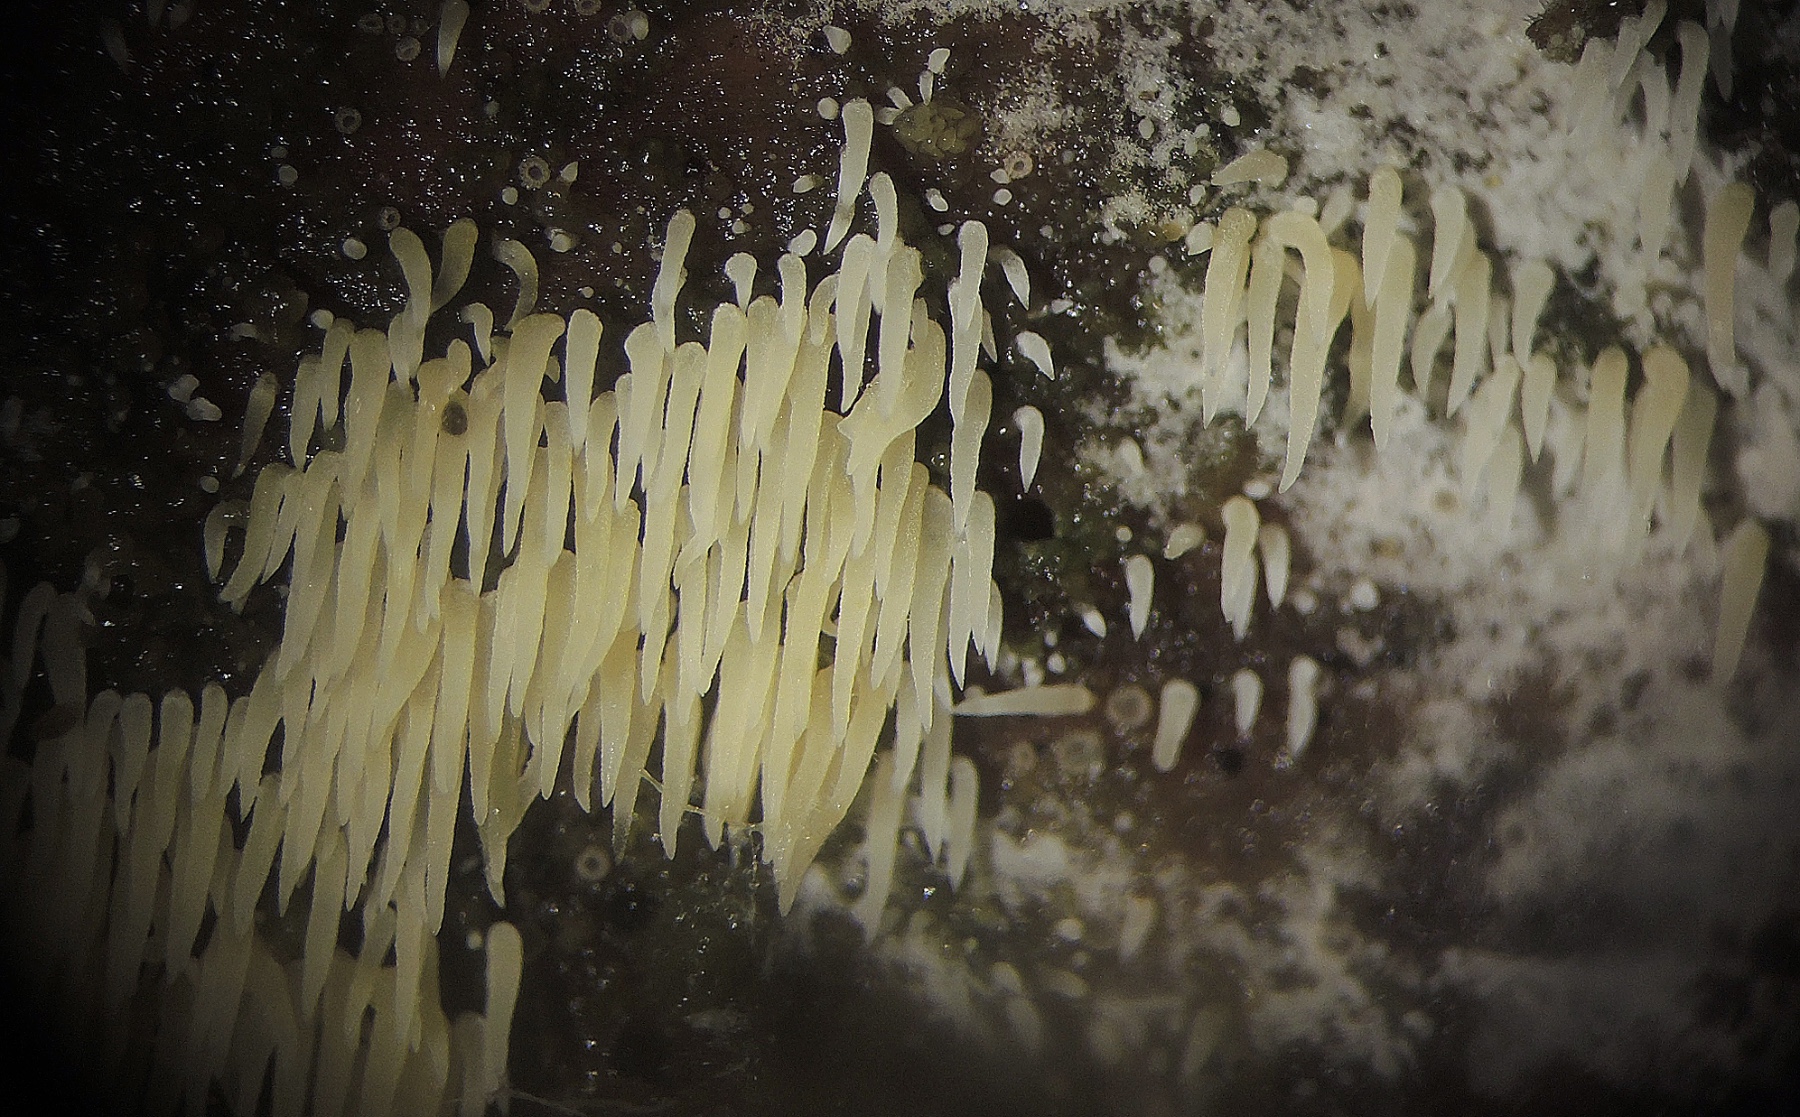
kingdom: Fungi
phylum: Basidiomycota
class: Agaricomycetes
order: Agaricales
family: Clavariaceae
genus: Mucronella
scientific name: Mucronella flava
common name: gul hængepig
